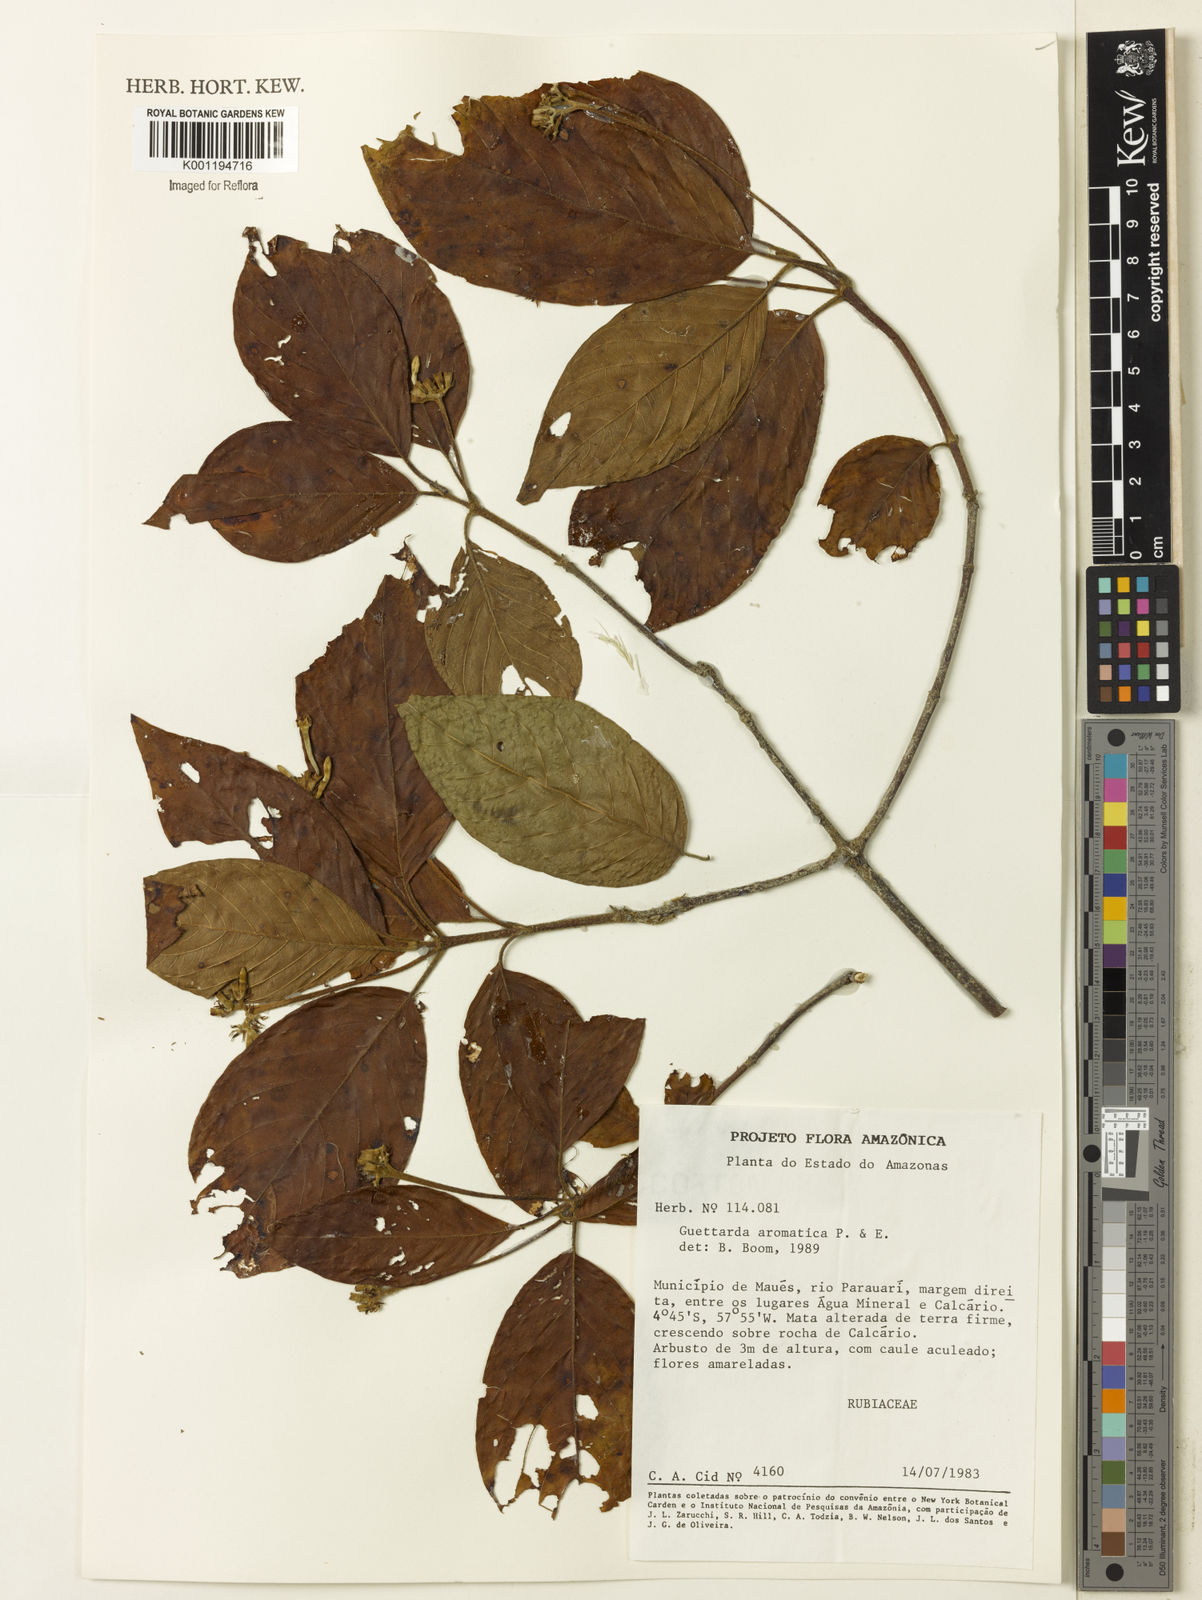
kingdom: Plantae
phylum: Tracheophyta
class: Magnoliopsida
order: Gentianales
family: Rubiaceae
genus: Guettarda
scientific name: Guettarda aromatica
